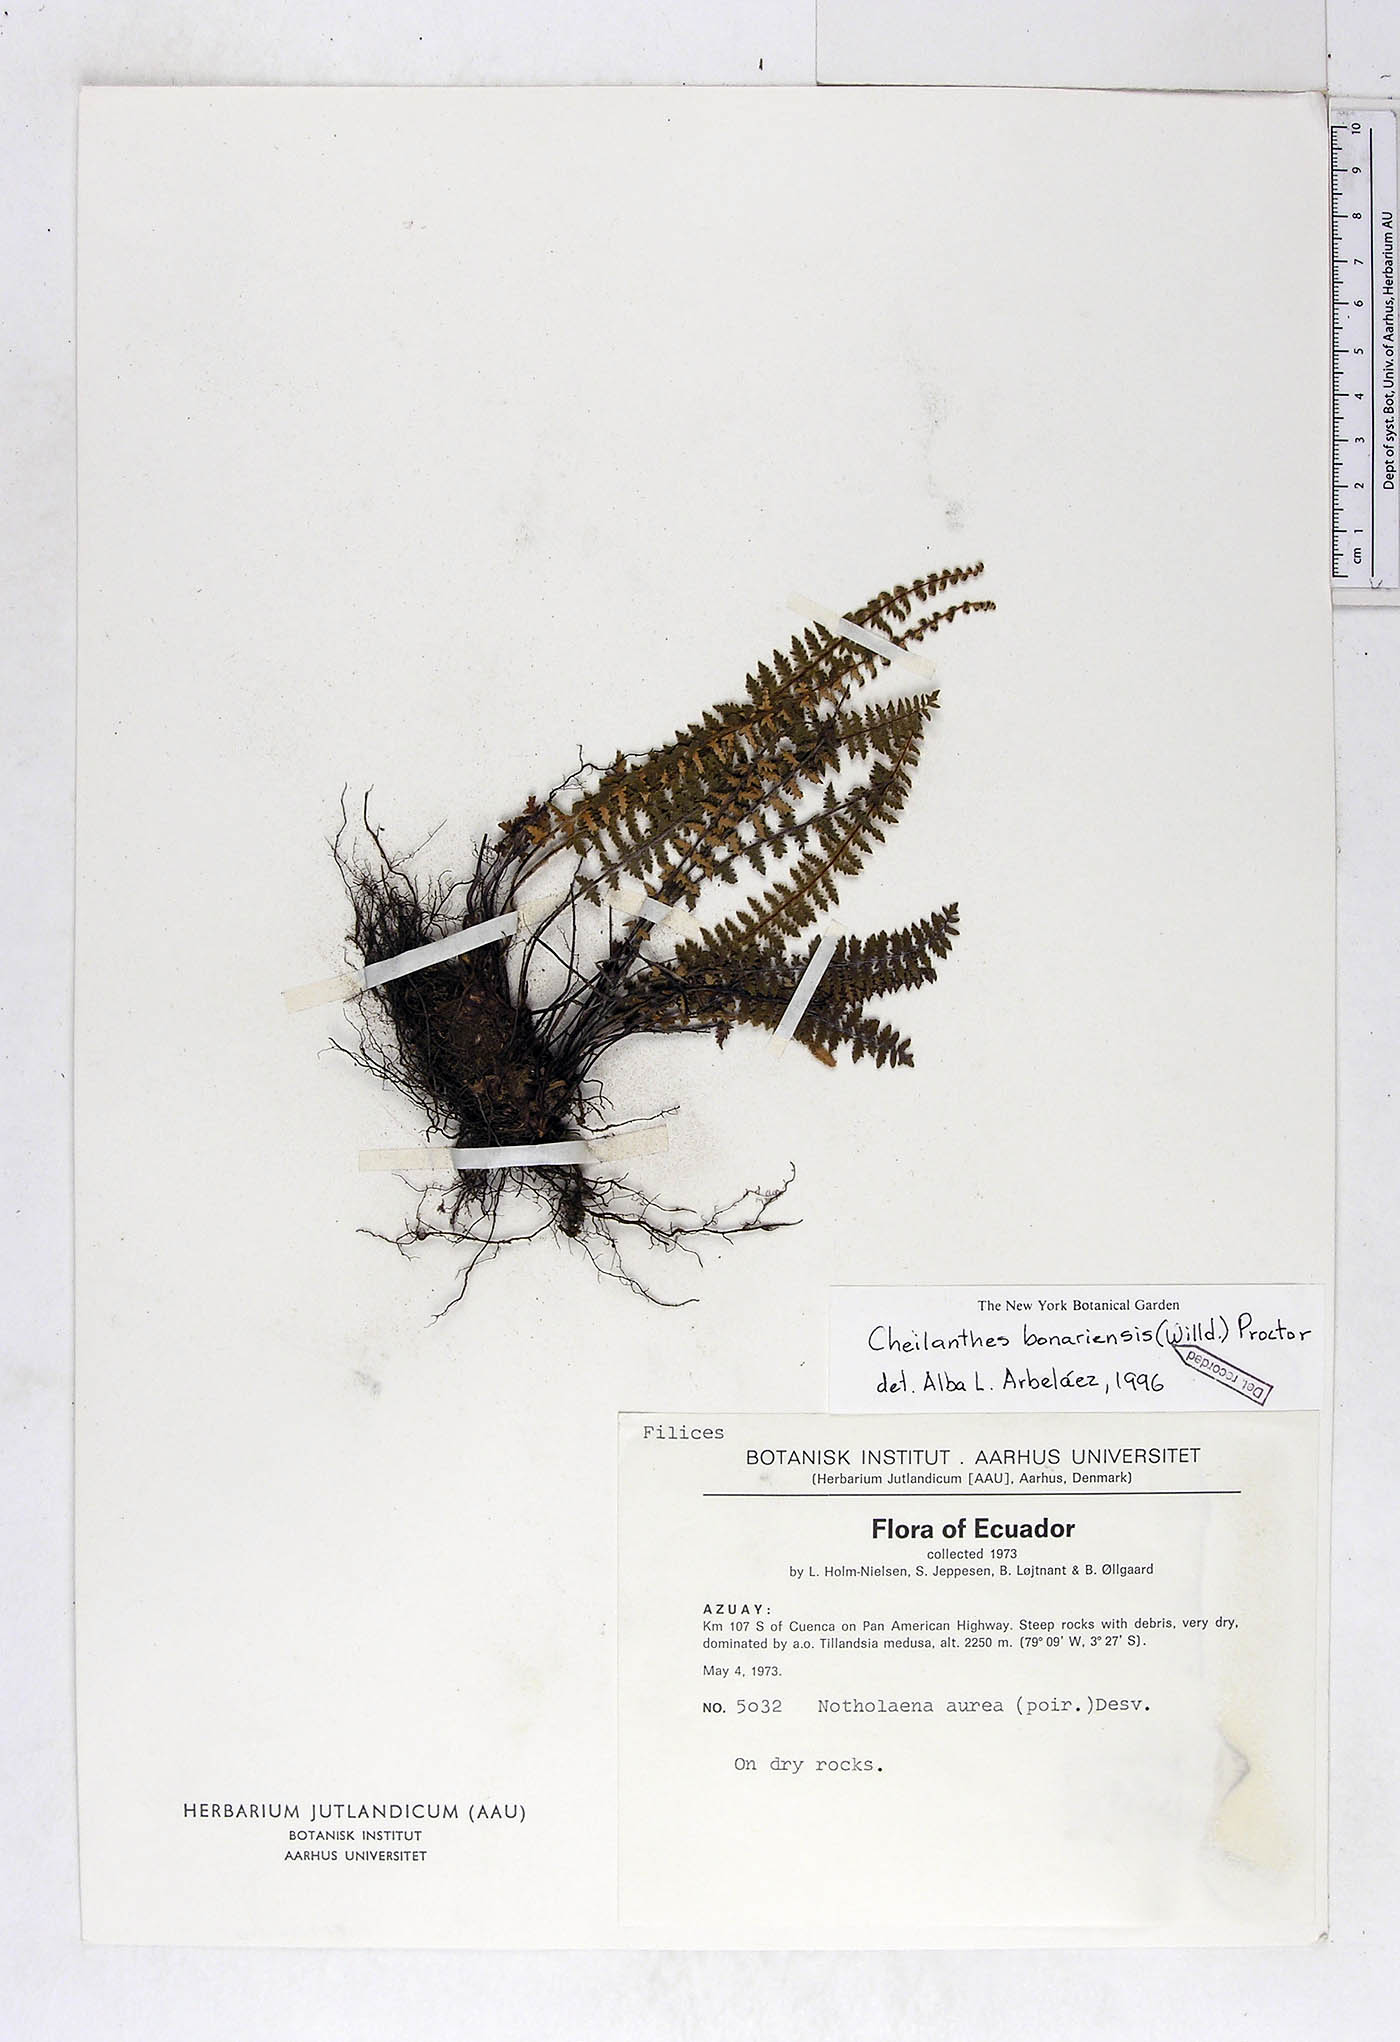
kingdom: Plantae
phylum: Tracheophyta
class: Polypodiopsida
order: Polypodiales
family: Pteridaceae
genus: Myriopteris
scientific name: Myriopteris aurea
